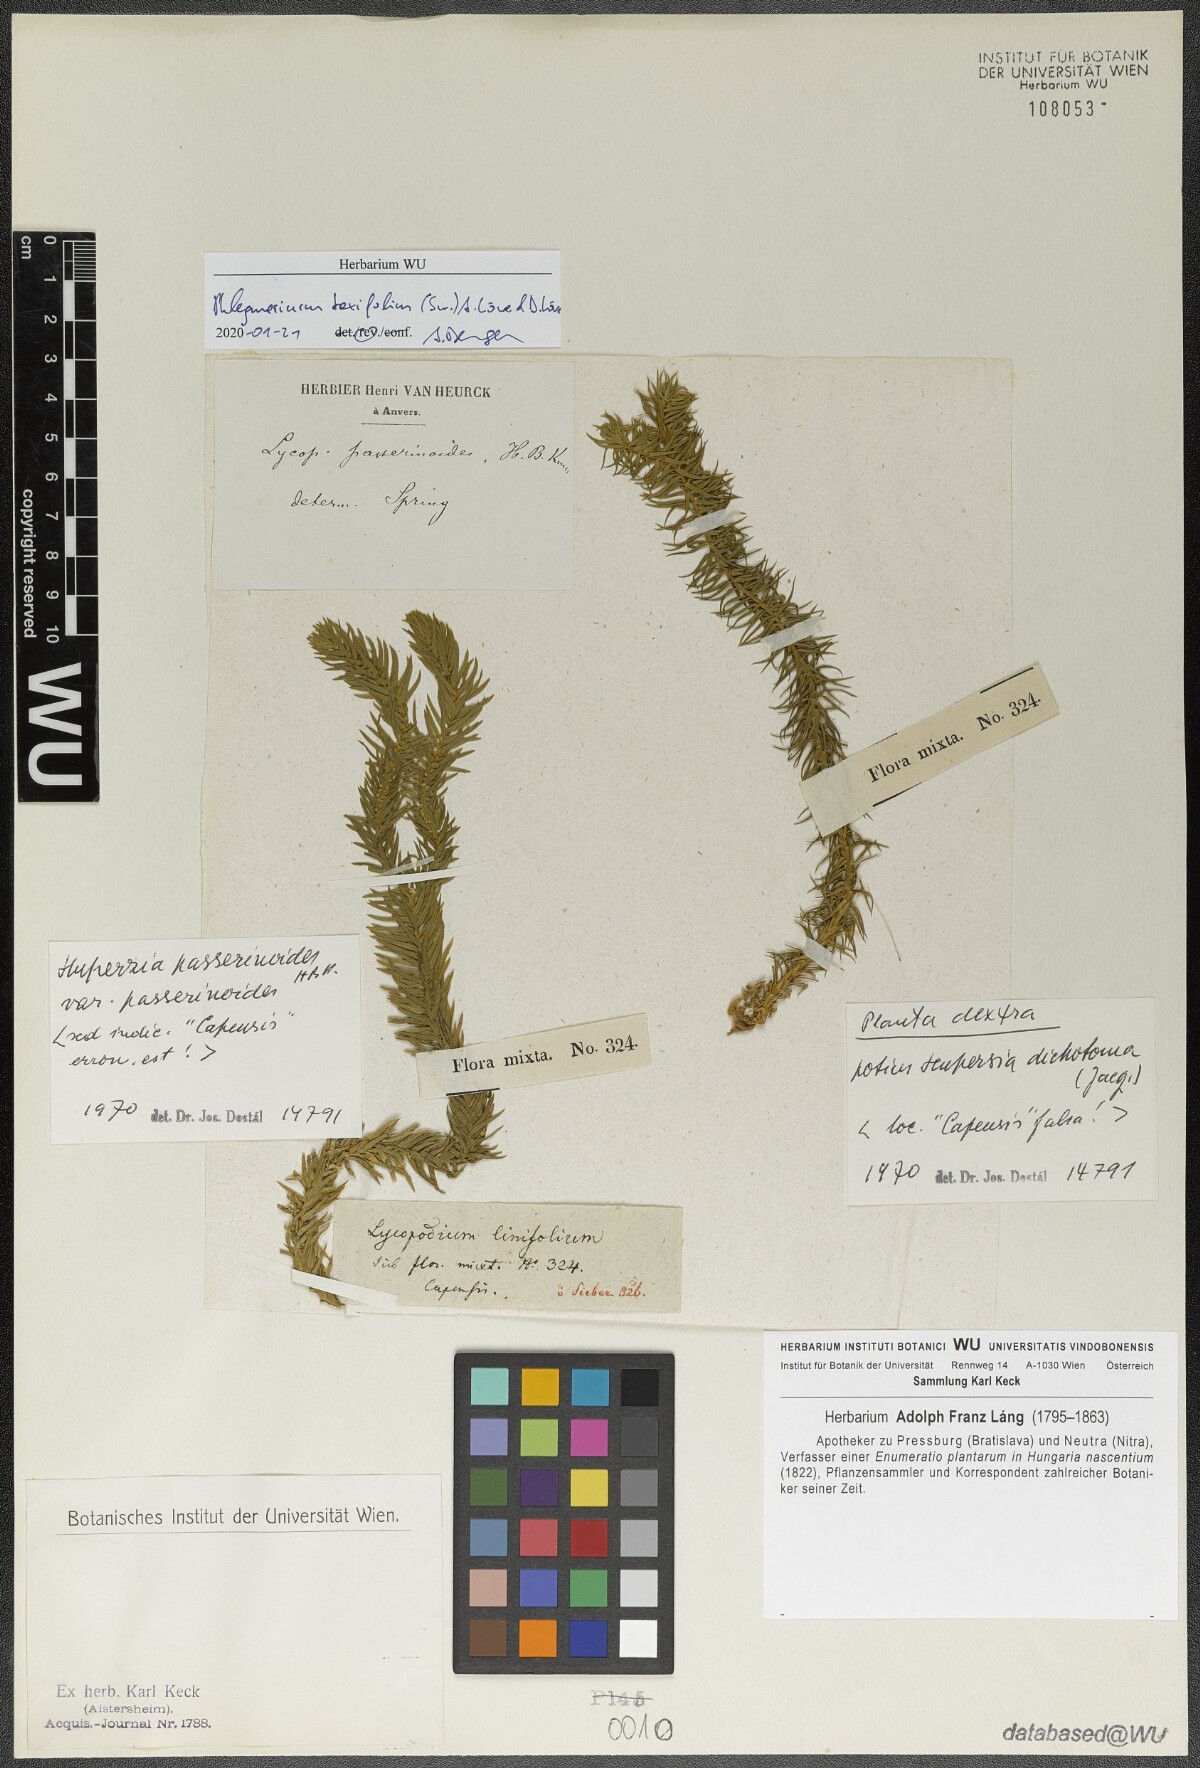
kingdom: Plantae
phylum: Tracheophyta
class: Lycopodiopsida
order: Lycopodiales
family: Lycopodiaceae
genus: Phlegmariurus
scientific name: Phlegmariurus taxifolius
